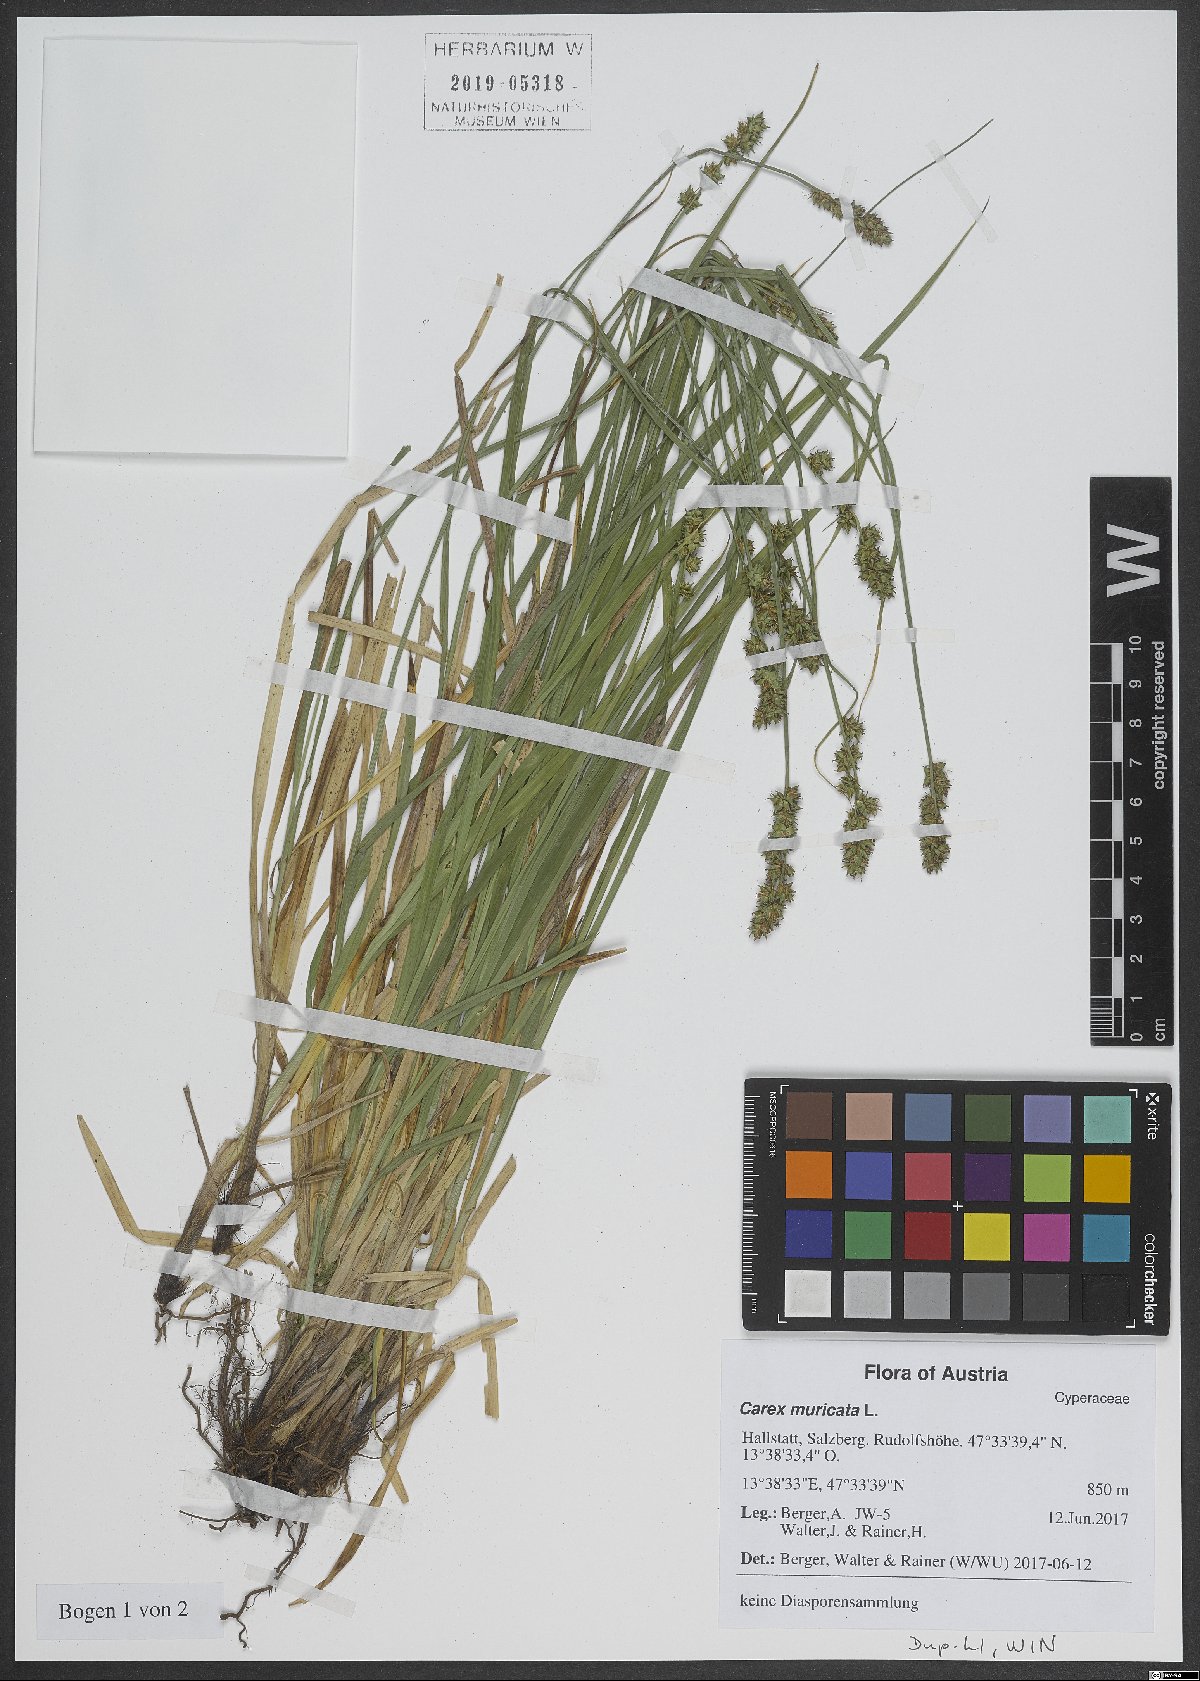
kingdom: Plantae
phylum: Tracheophyta
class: Liliopsida
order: Poales
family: Cyperaceae
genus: Carex
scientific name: Carex muricata
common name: Rough sedge
